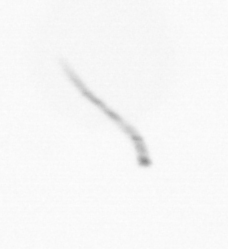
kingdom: Chromista
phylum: Ochrophyta
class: Bacillariophyceae
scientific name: Bacillariophyceae
